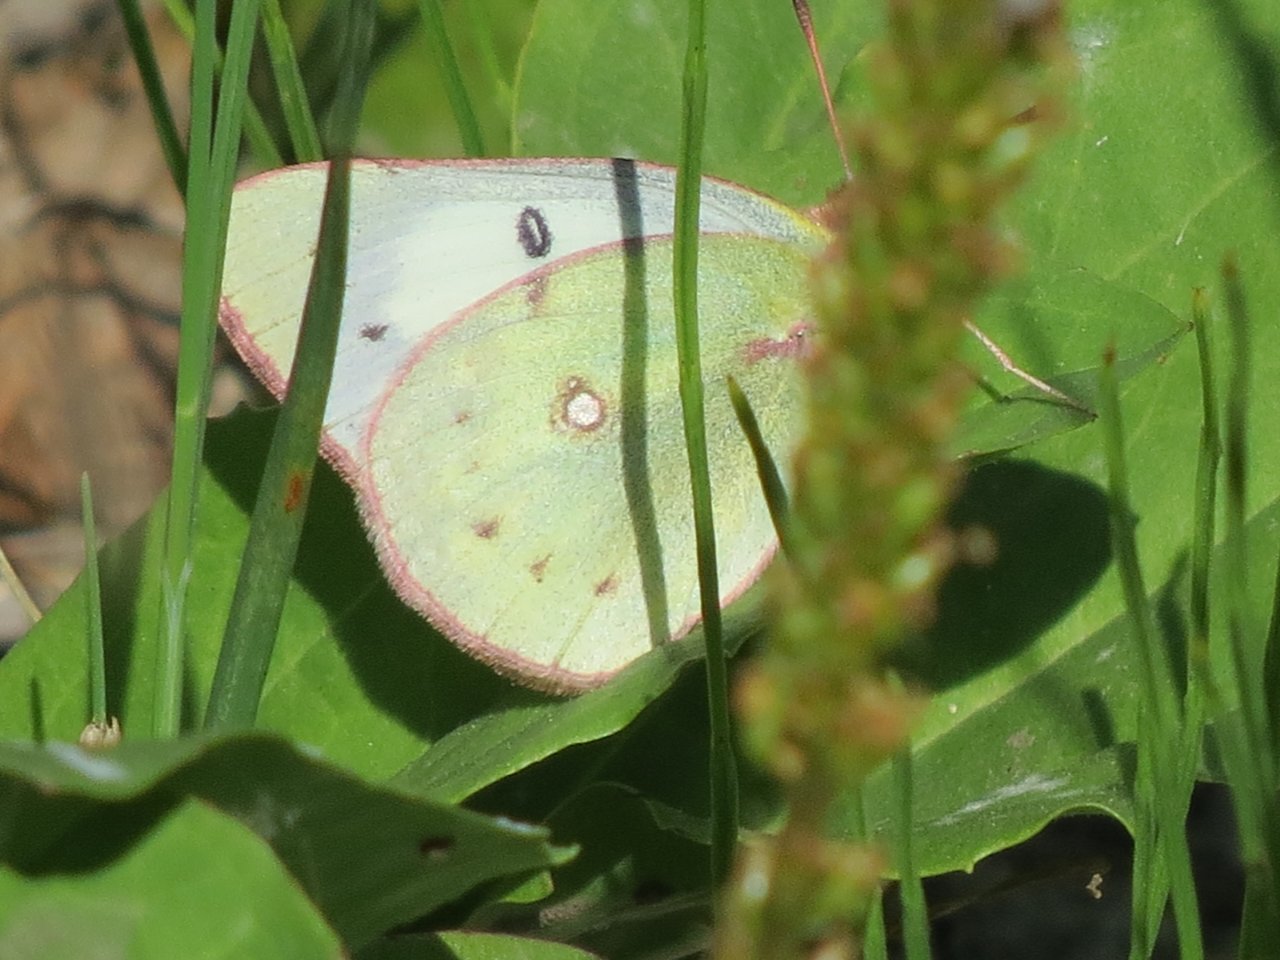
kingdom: Animalia
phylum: Arthropoda
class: Insecta
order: Lepidoptera
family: Pieridae
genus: Colias
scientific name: Colias philodice
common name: Clouded Sulphur
